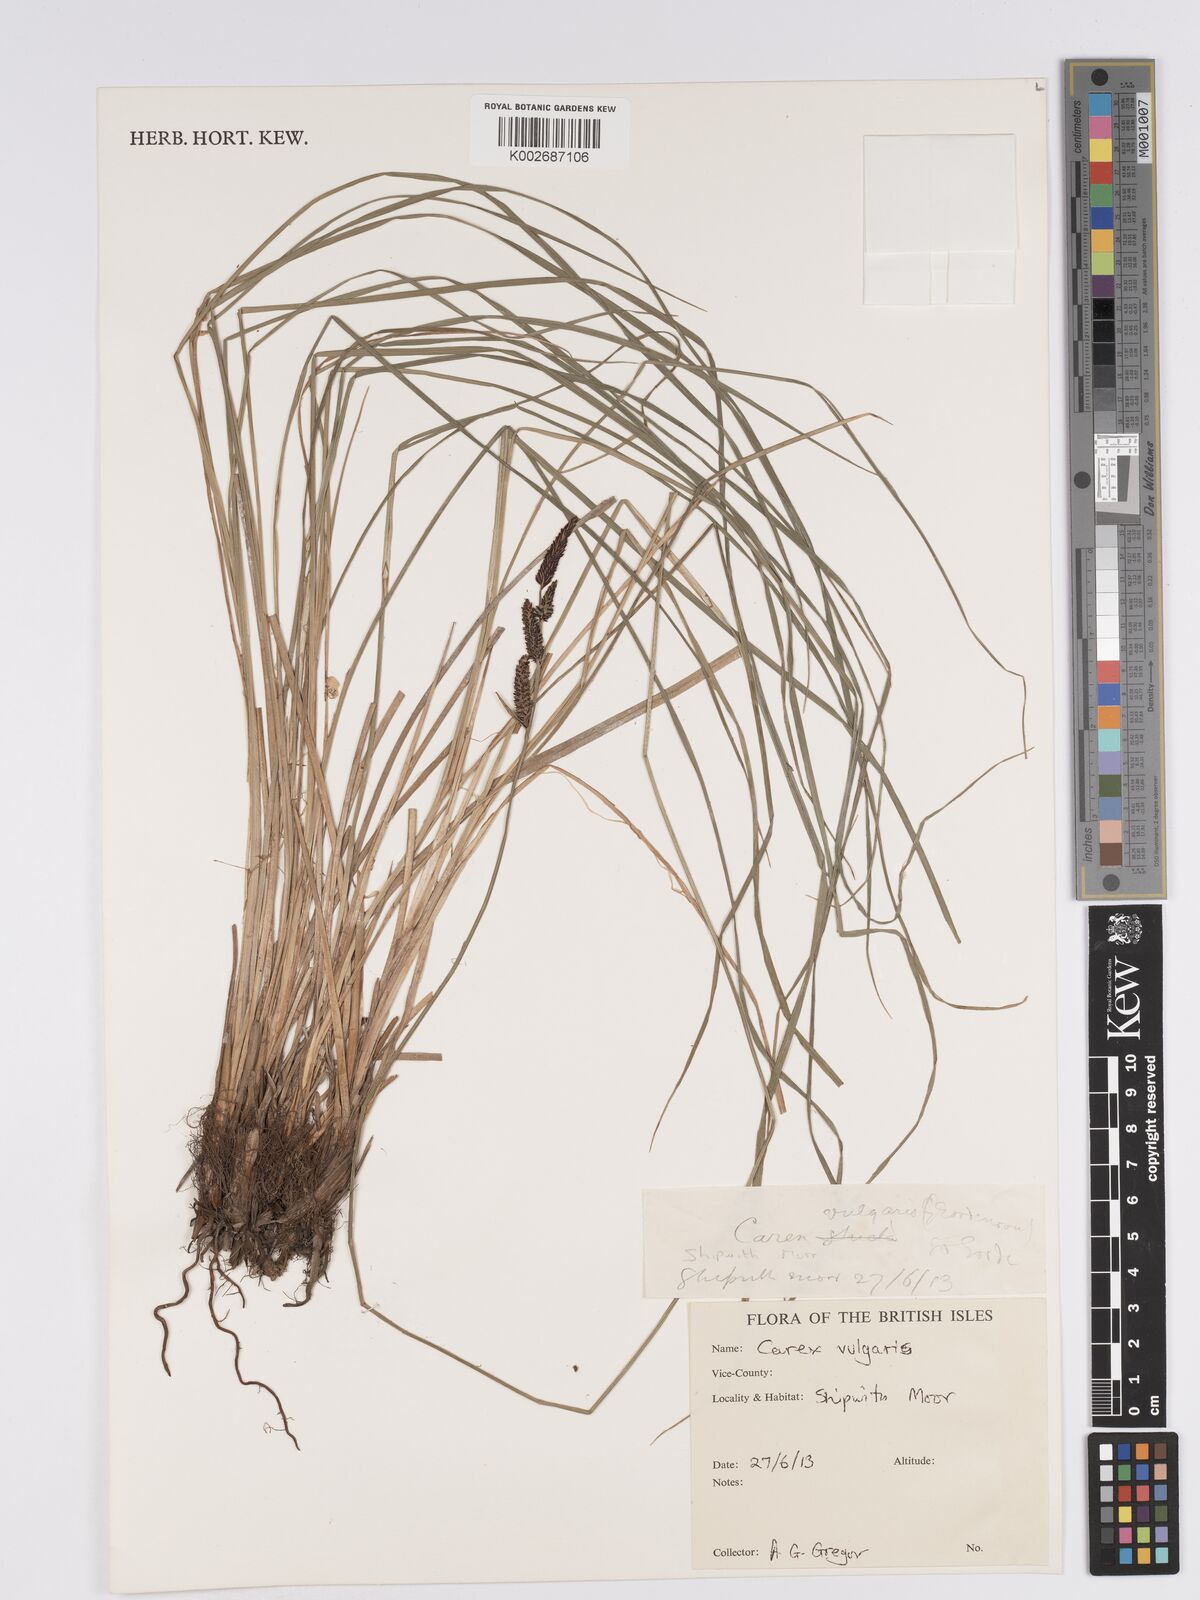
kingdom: Plantae
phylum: Tracheophyta
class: Liliopsida
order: Poales
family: Cyperaceae
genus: Carex
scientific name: Carex nigra
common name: Common sedge
